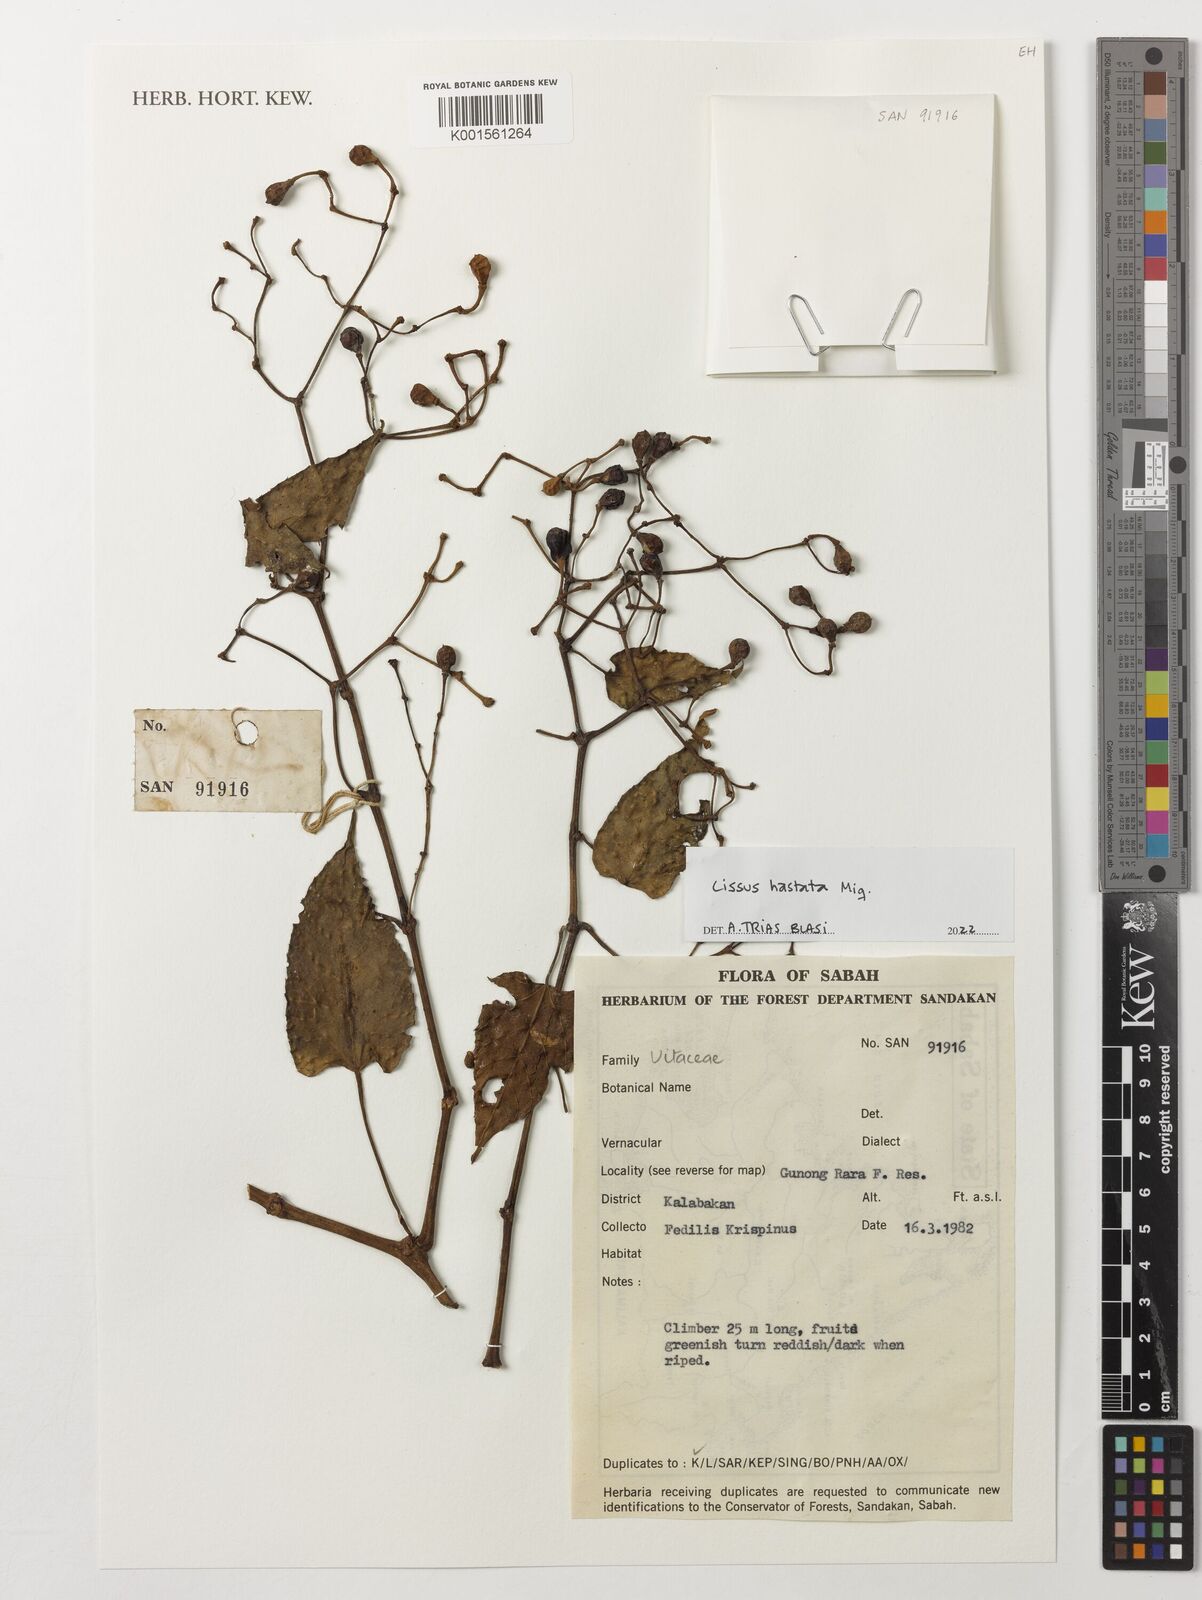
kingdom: Plantae
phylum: Tracheophyta
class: Magnoliopsida
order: Vitales
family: Vitaceae
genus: Cissus
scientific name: Cissus hastata
